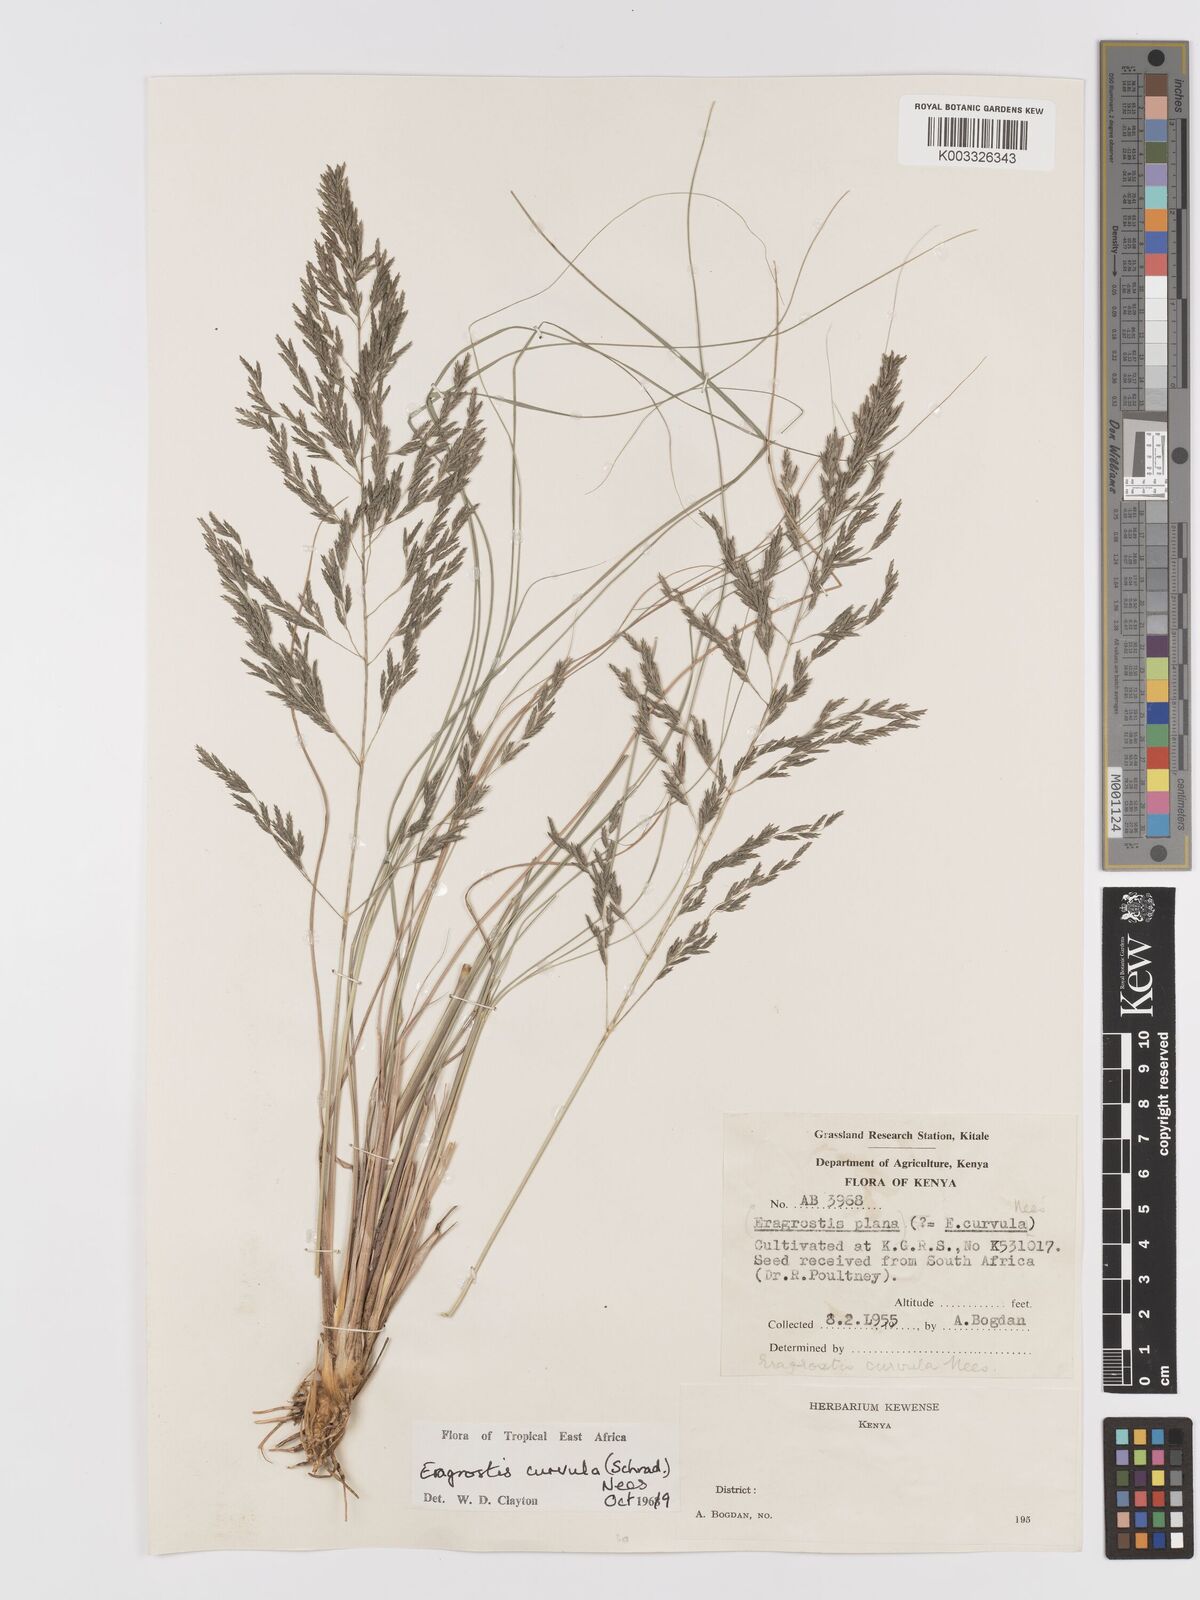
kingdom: Plantae
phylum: Tracheophyta
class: Liliopsida
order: Poales
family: Poaceae
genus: Eragrostis
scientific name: Eragrostis curvula
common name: African love-grass
